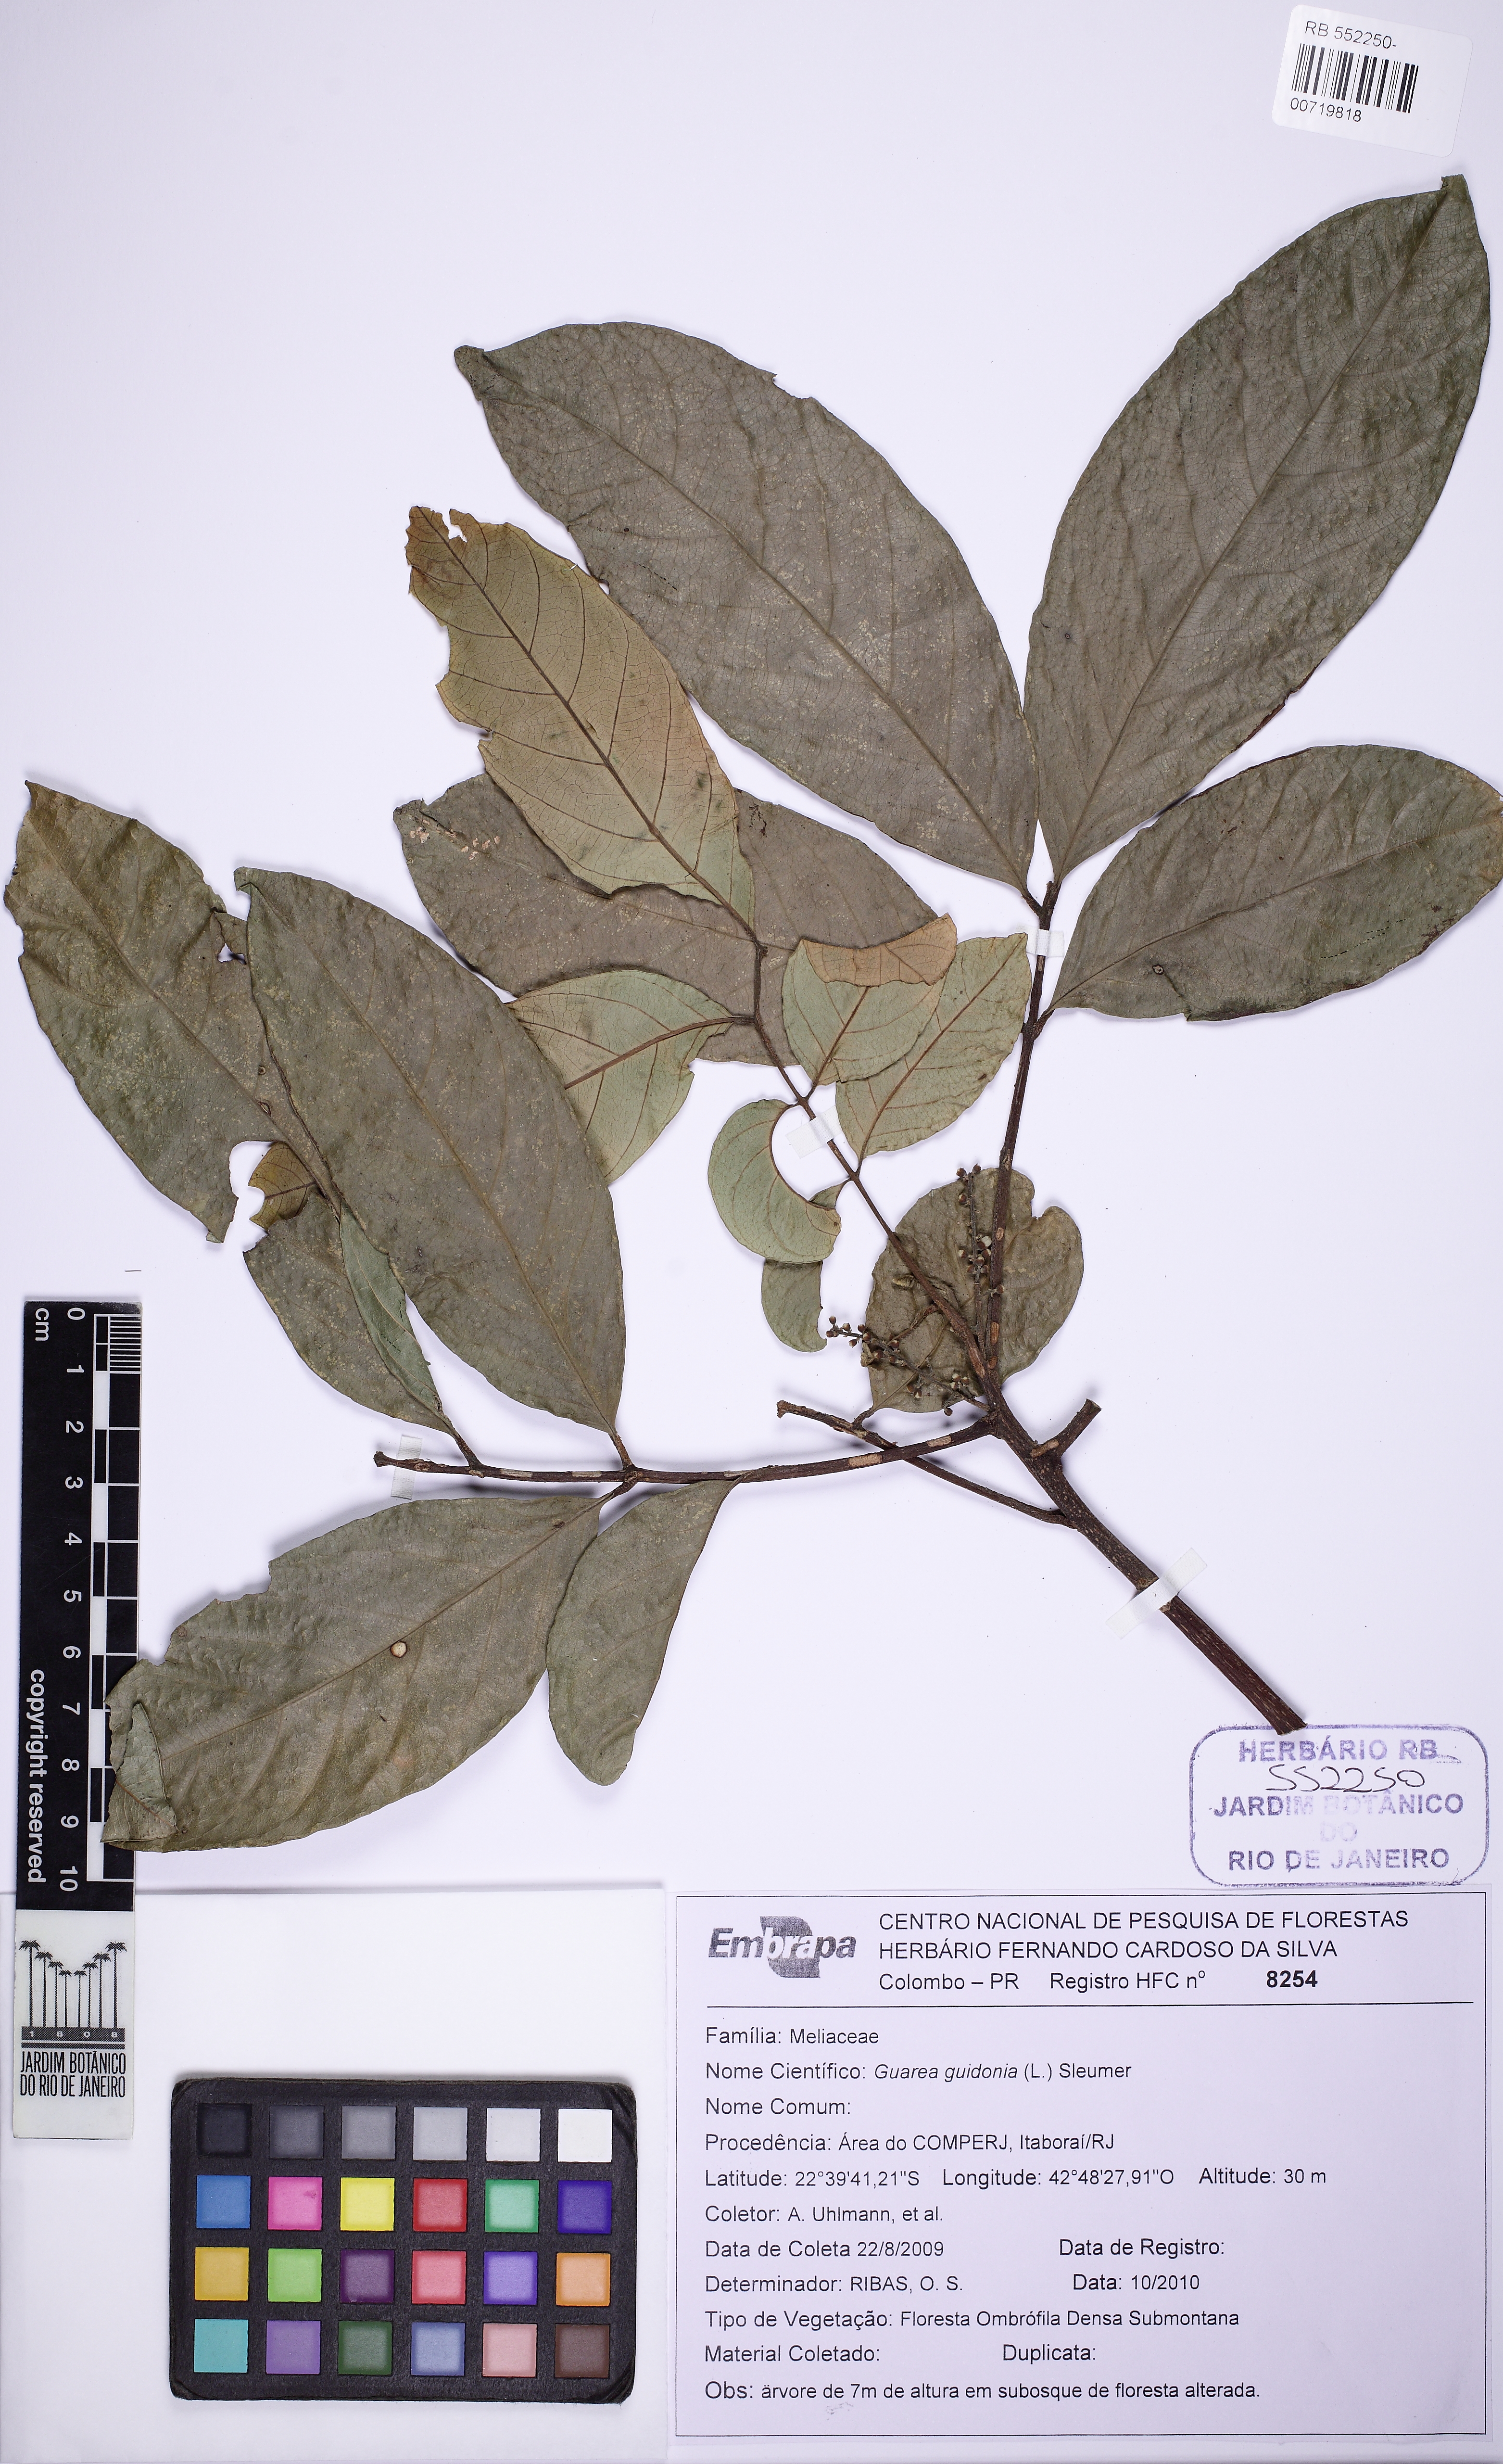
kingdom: Plantae
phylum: Tracheophyta
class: Magnoliopsida
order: Sapindales
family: Meliaceae
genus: Guarea
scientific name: Guarea guidonia
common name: American muskwood
